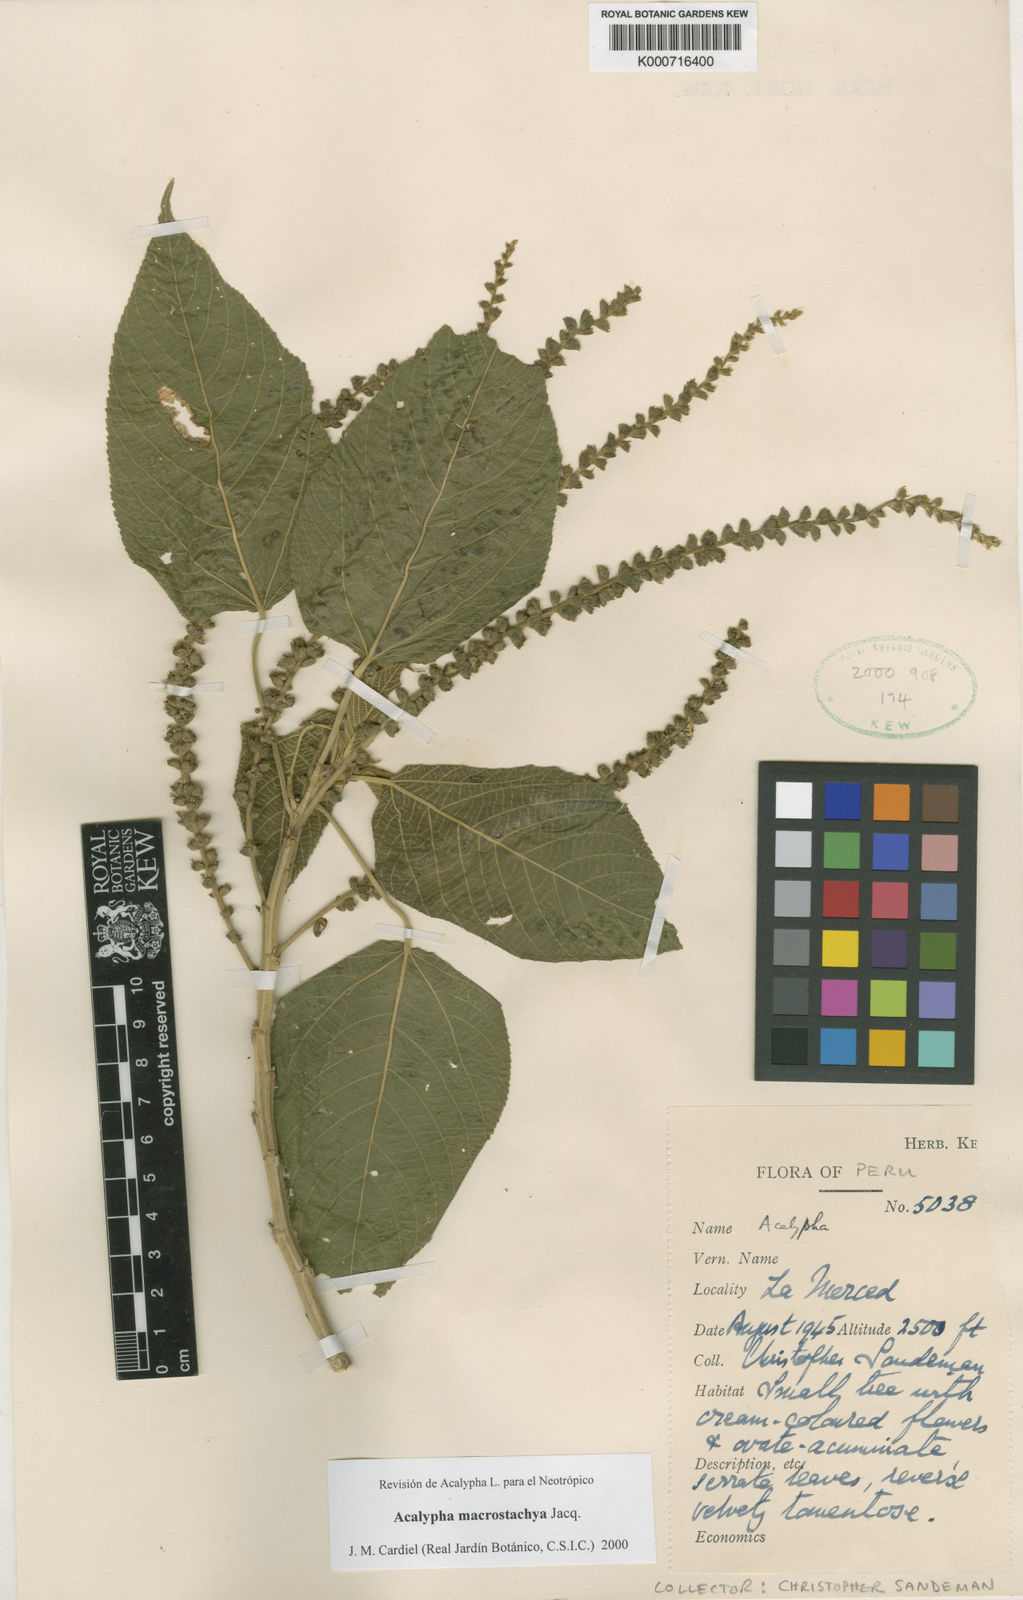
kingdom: Plantae
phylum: Tracheophyta
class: Magnoliopsida
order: Malpighiales
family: Euphorbiaceae
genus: Acalypha
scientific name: Acalypha macrostachya
